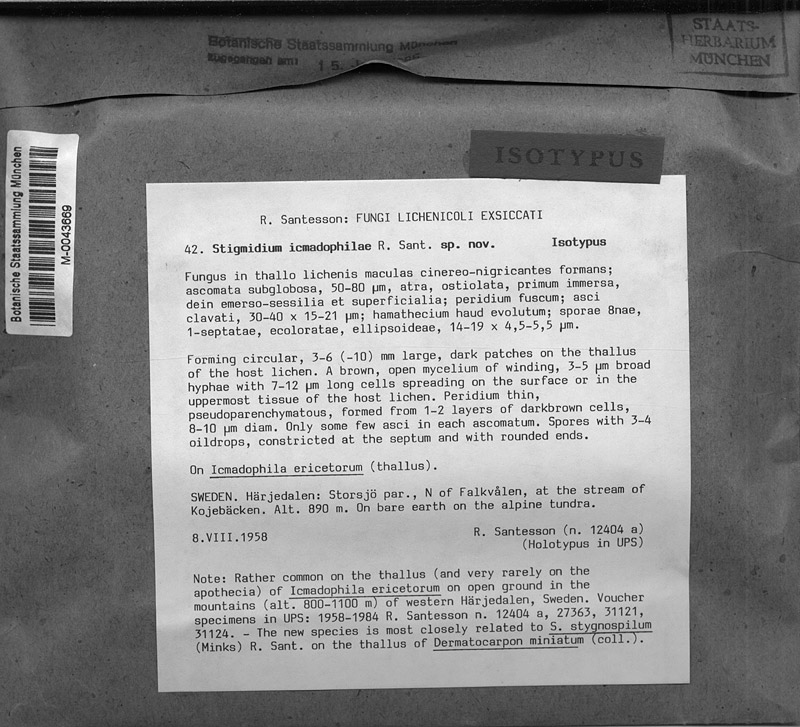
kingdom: Fungi
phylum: Ascomycota
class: Dothideomycetes
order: Mycosphaerellales
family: Mycosphaerellaceae
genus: Sphaerellothecium
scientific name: Sphaerellothecium icmadophilae
